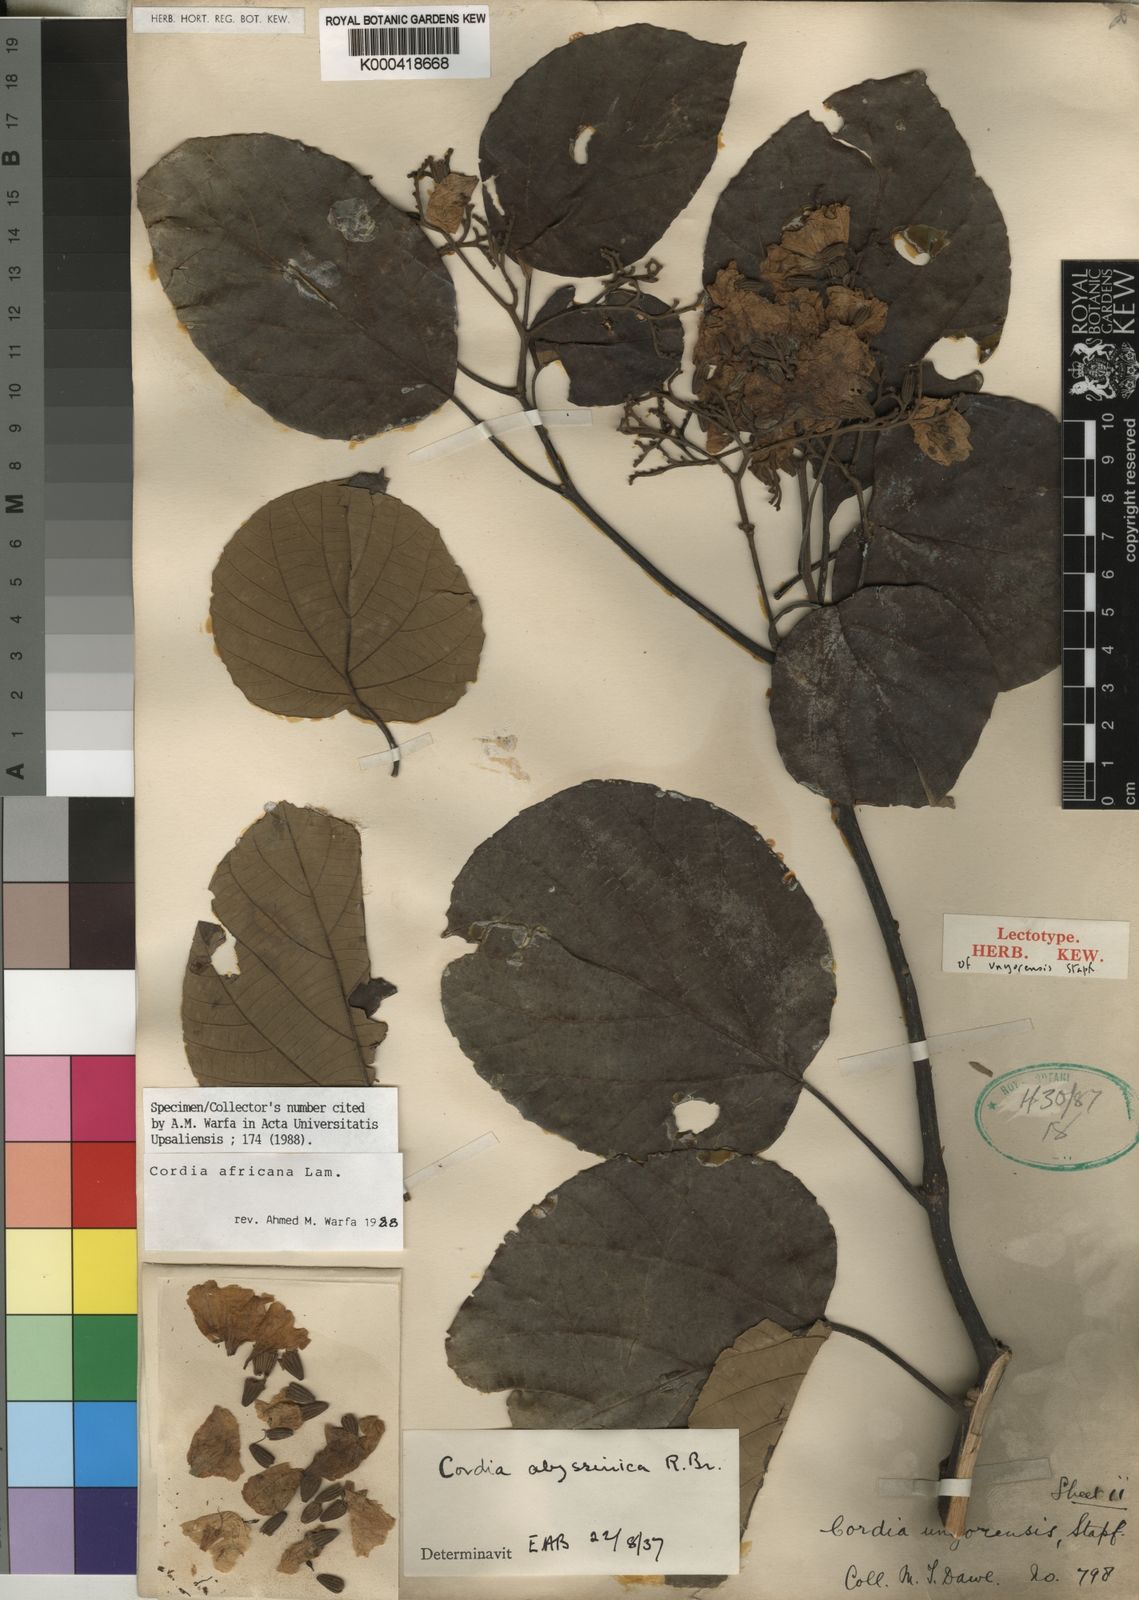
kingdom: Plantae
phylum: Tracheophyta
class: Magnoliopsida
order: Boraginales
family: Cordiaceae
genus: Cordia
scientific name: Cordia africana
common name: Large-leaved cordia
